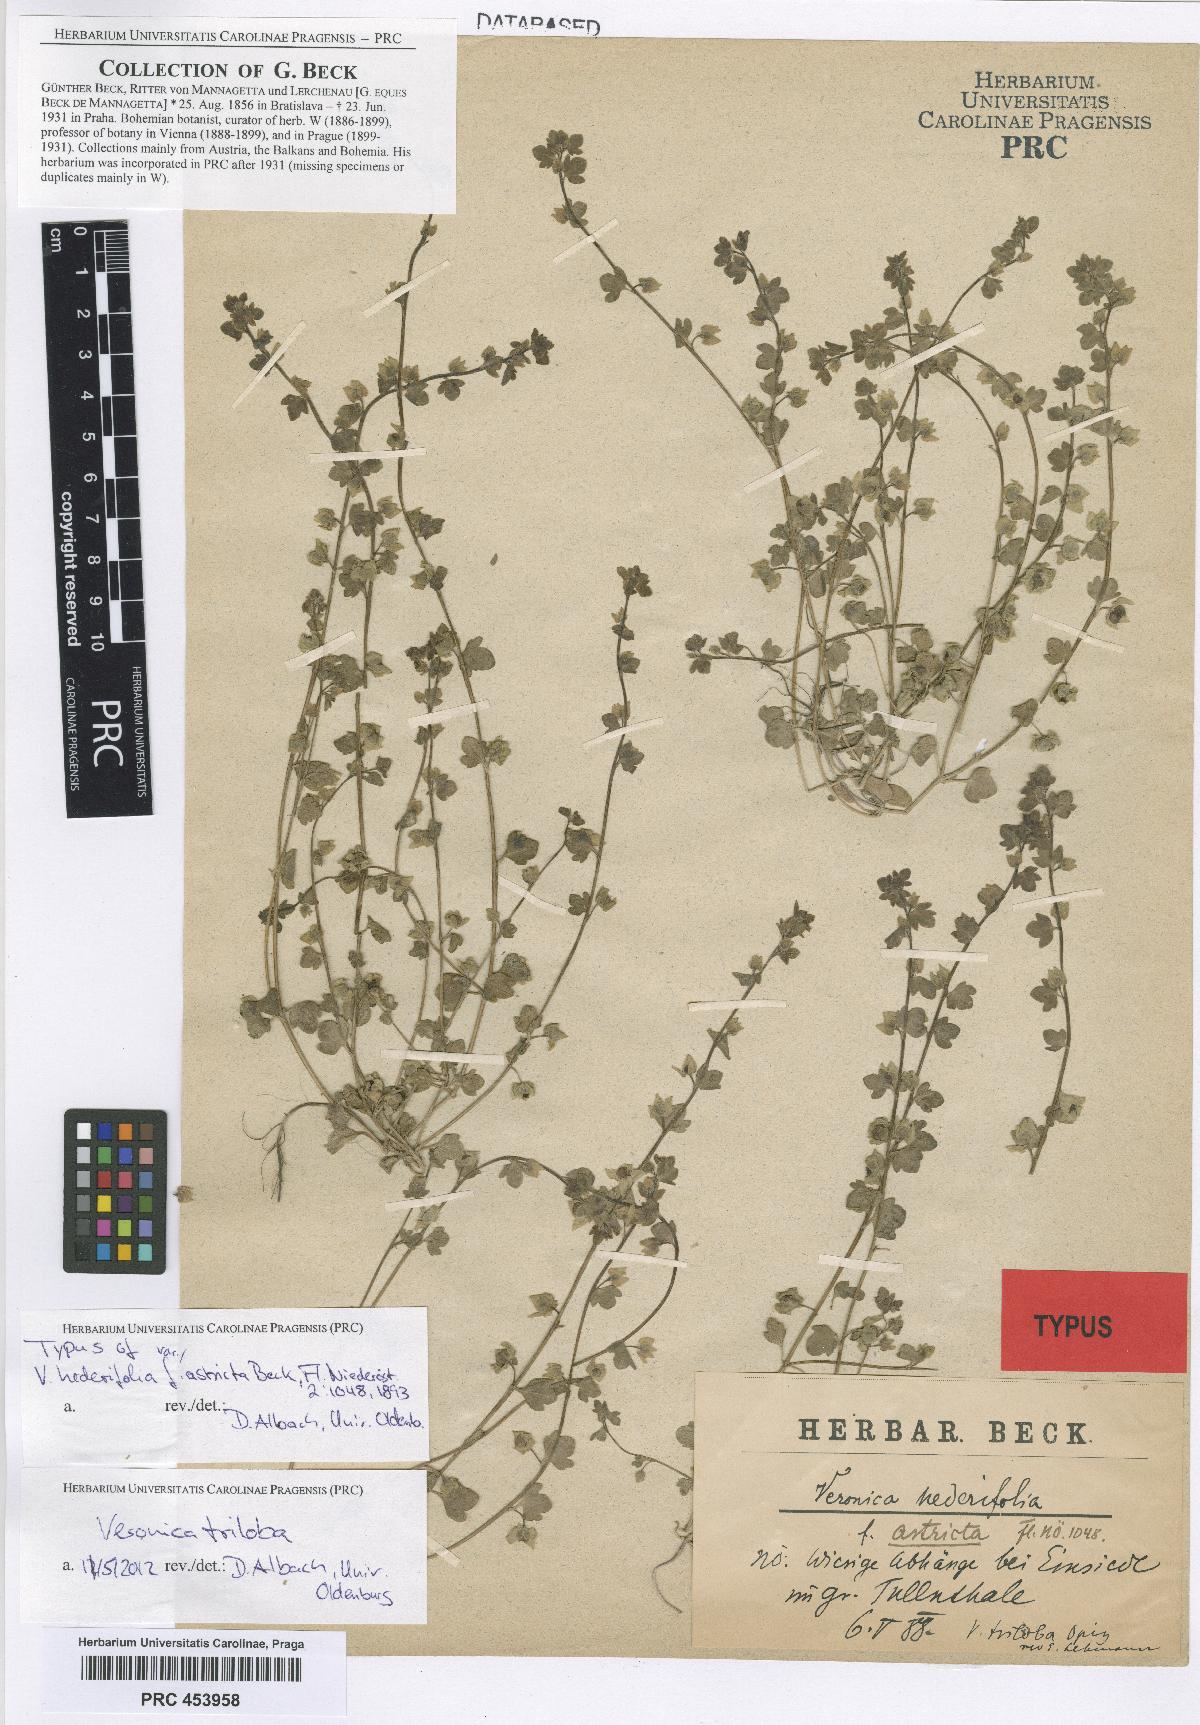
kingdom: Plantae
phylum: Tracheophyta
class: Magnoliopsida
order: Lamiales
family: Plantaginaceae
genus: Veronica
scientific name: Veronica triloba
